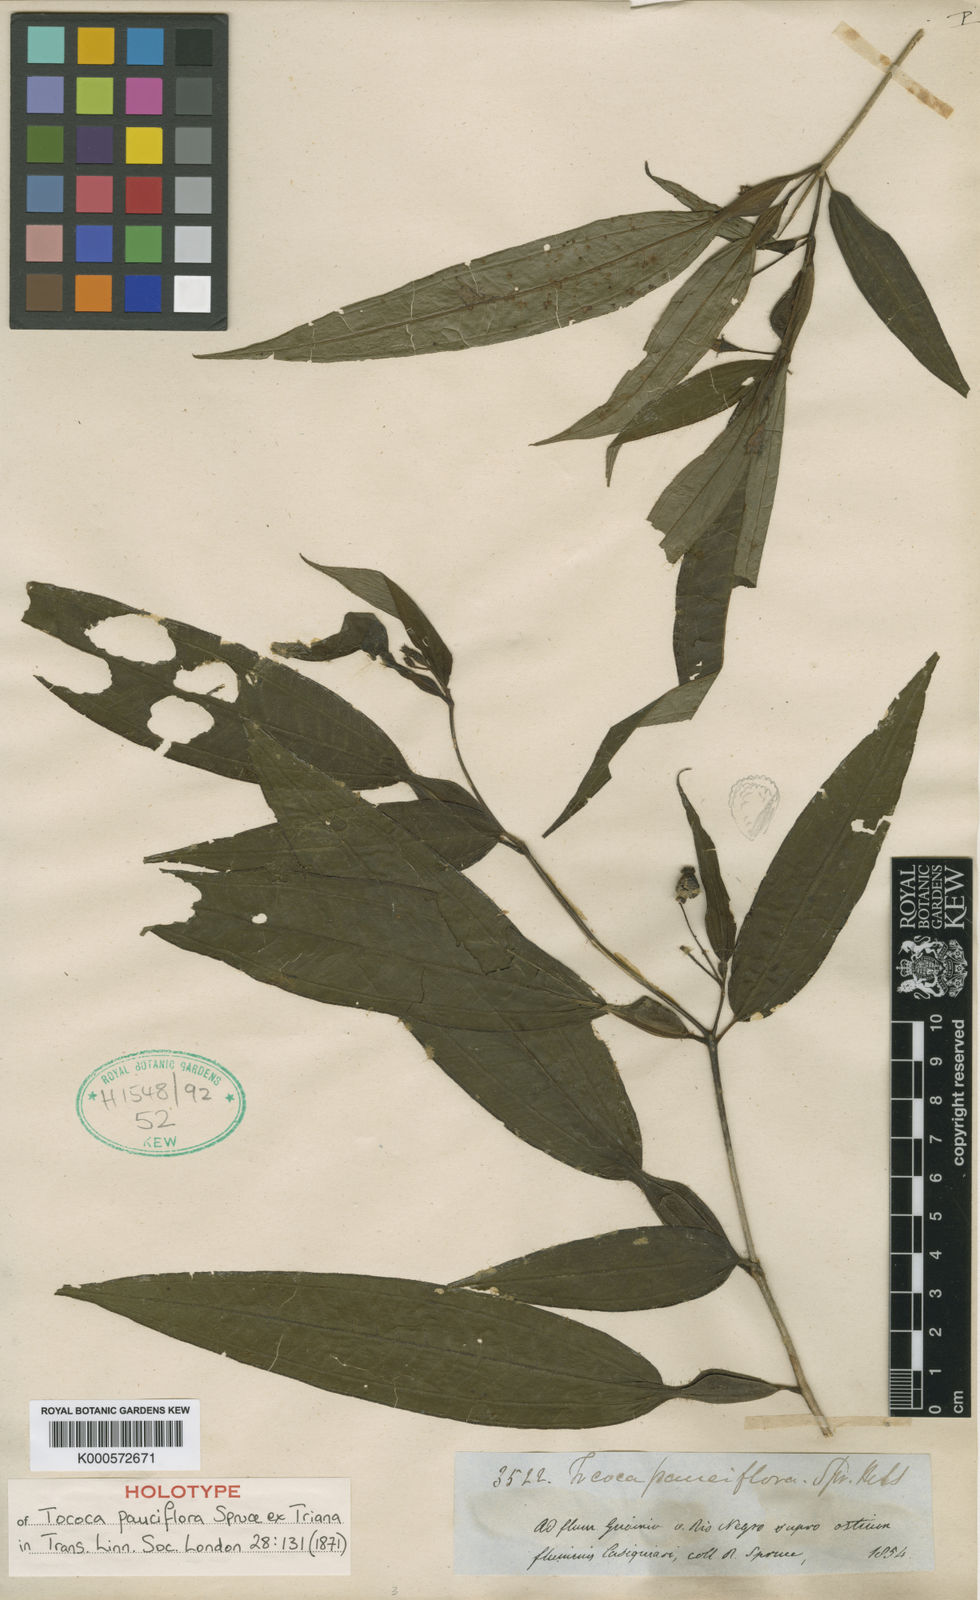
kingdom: Plantae
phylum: Tracheophyta
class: Magnoliopsida
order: Myrtales
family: Melastomataceae
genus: Miconia
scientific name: Miconia tocopauciflora
